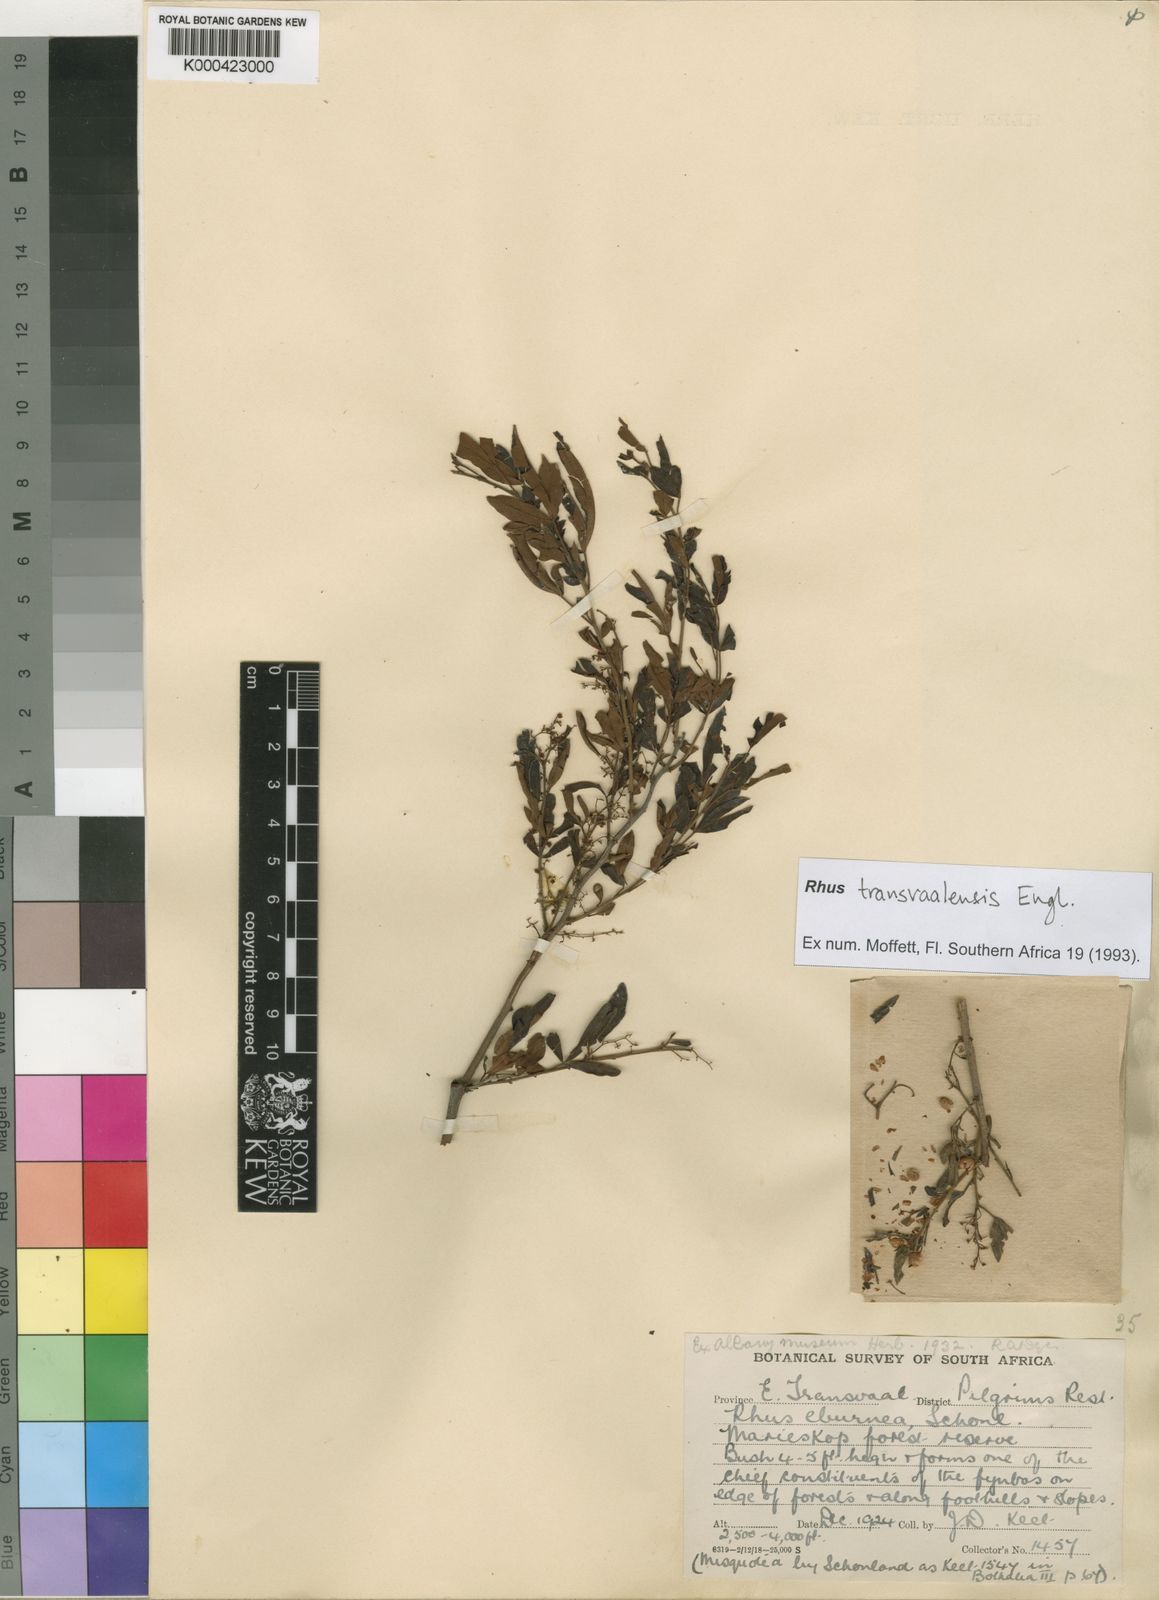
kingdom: Plantae
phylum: Tracheophyta
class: Magnoliopsida
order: Sapindales
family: Anacardiaceae
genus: Rhus
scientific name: Rhus
